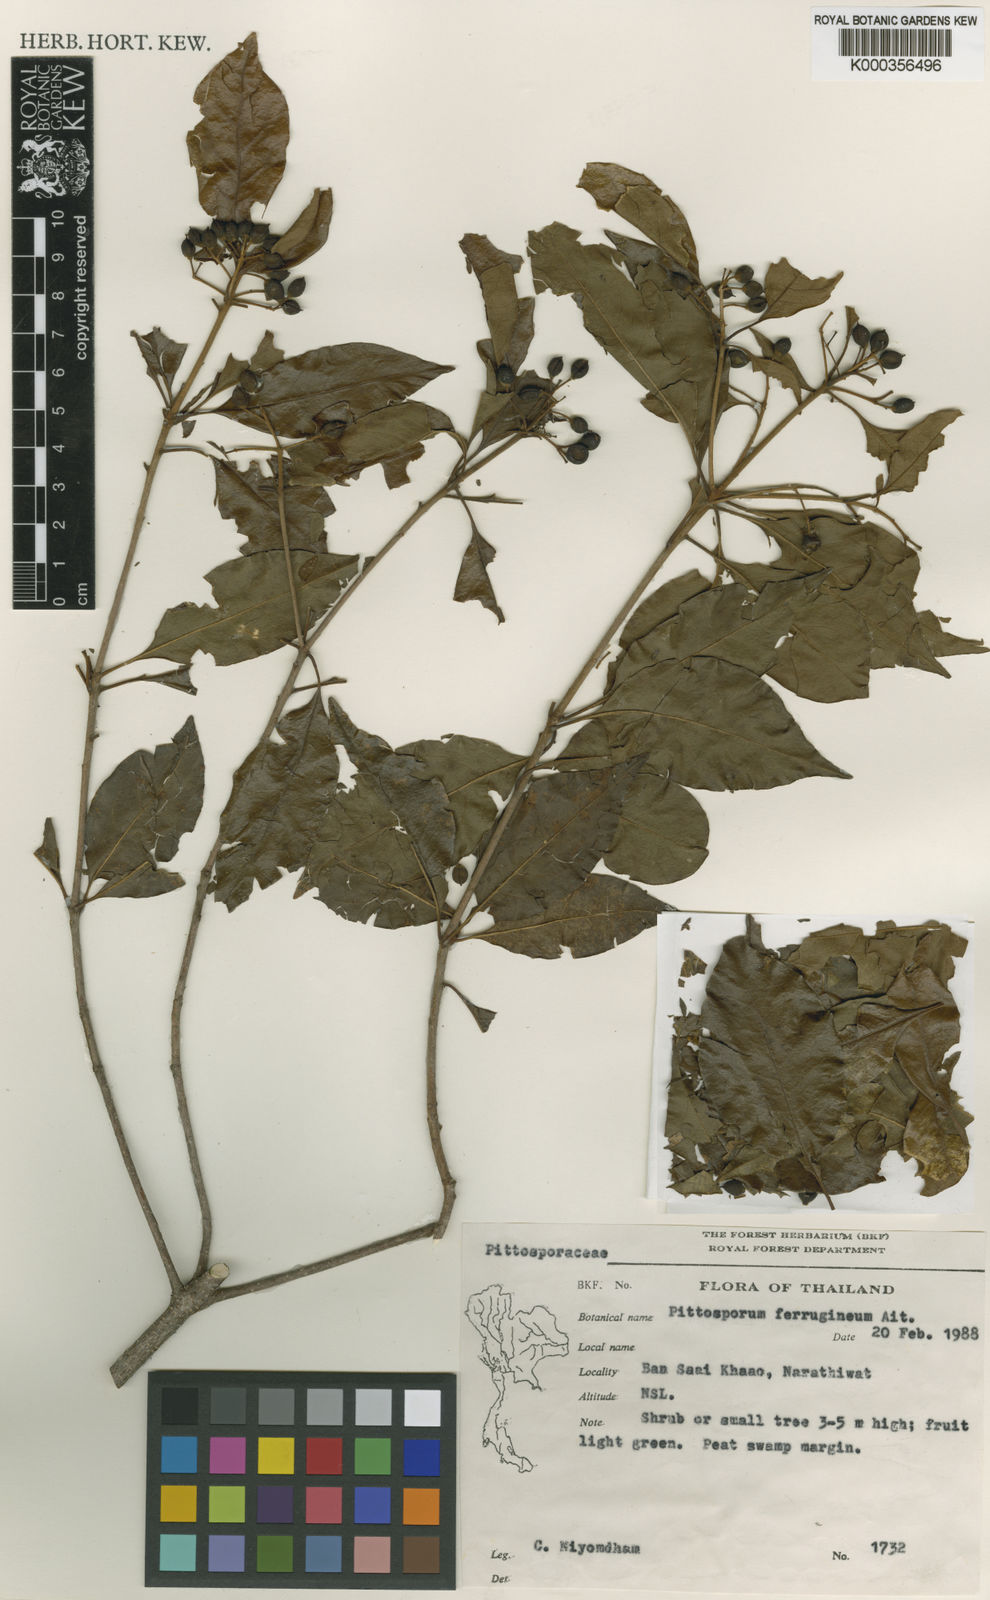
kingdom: Plantae
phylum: Tracheophyta
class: Magnoliopsida
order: Apiales
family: Pittosporaceae
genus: Pittosporum
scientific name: Pittosporum ferrugineum
